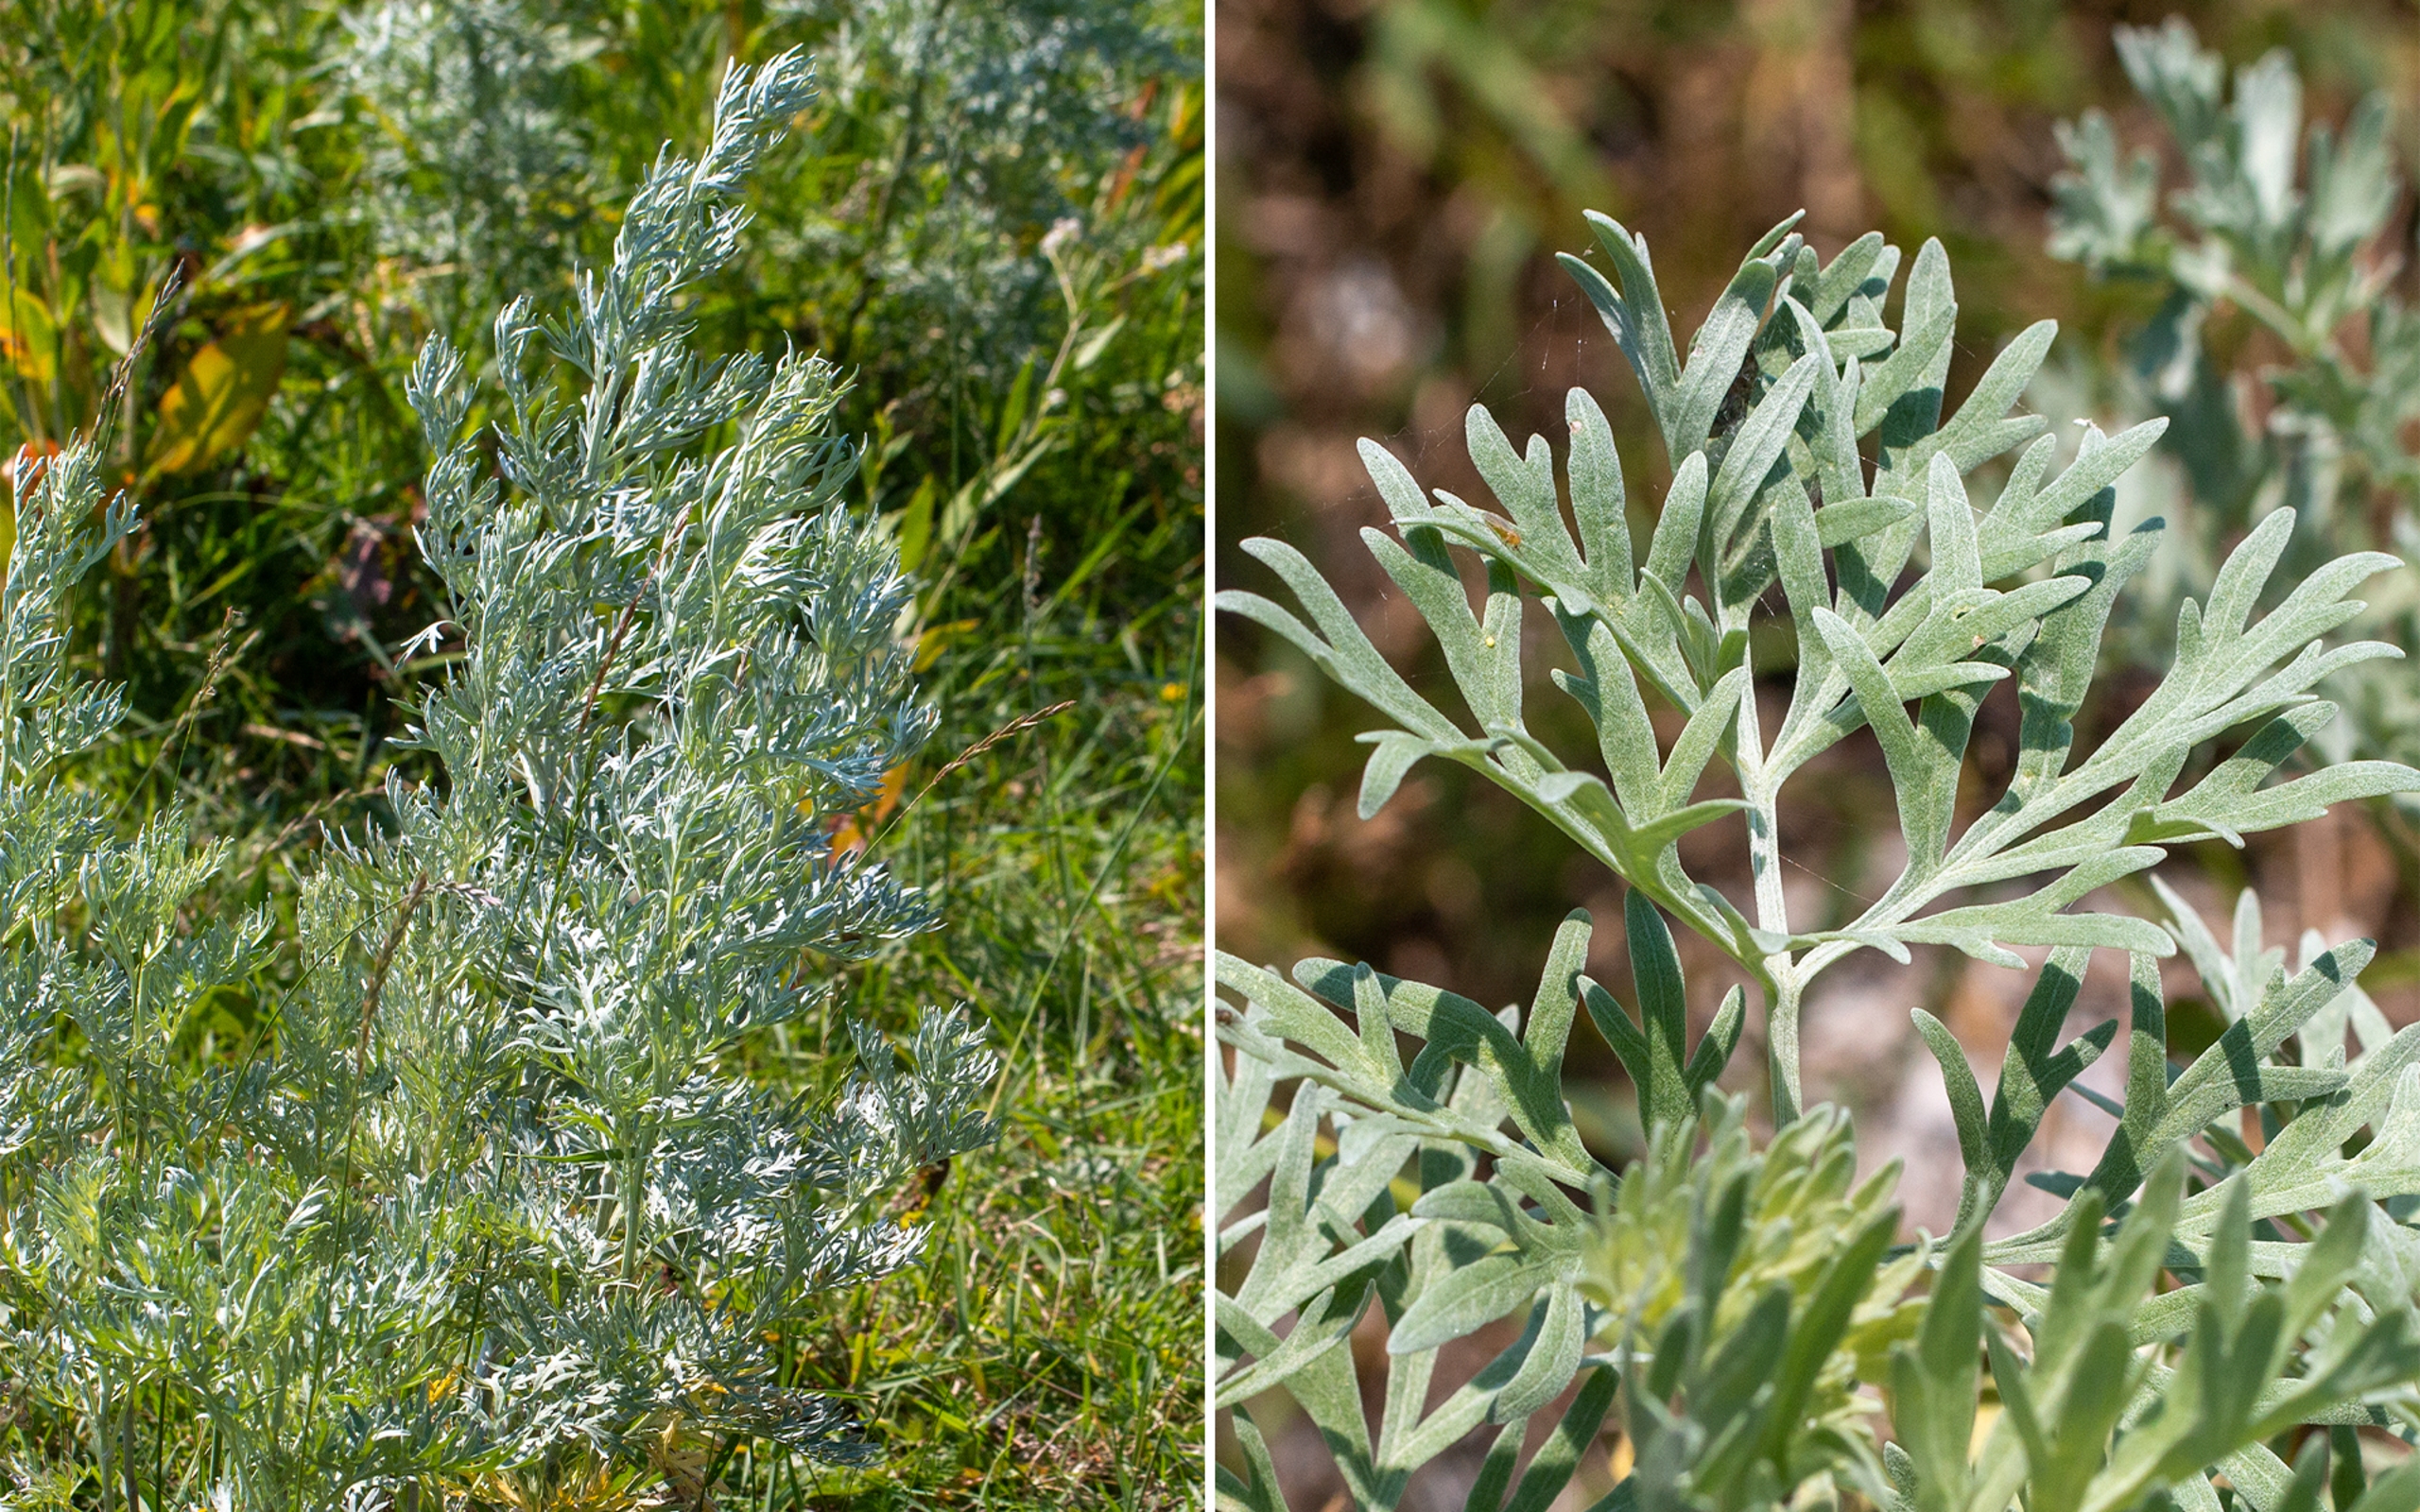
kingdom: Plantae
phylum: Tracheophyta
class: Magnoliopsida
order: Asterales
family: Asteraceae
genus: Artemisia
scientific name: Artemisia absinthium
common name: Havemalurt
